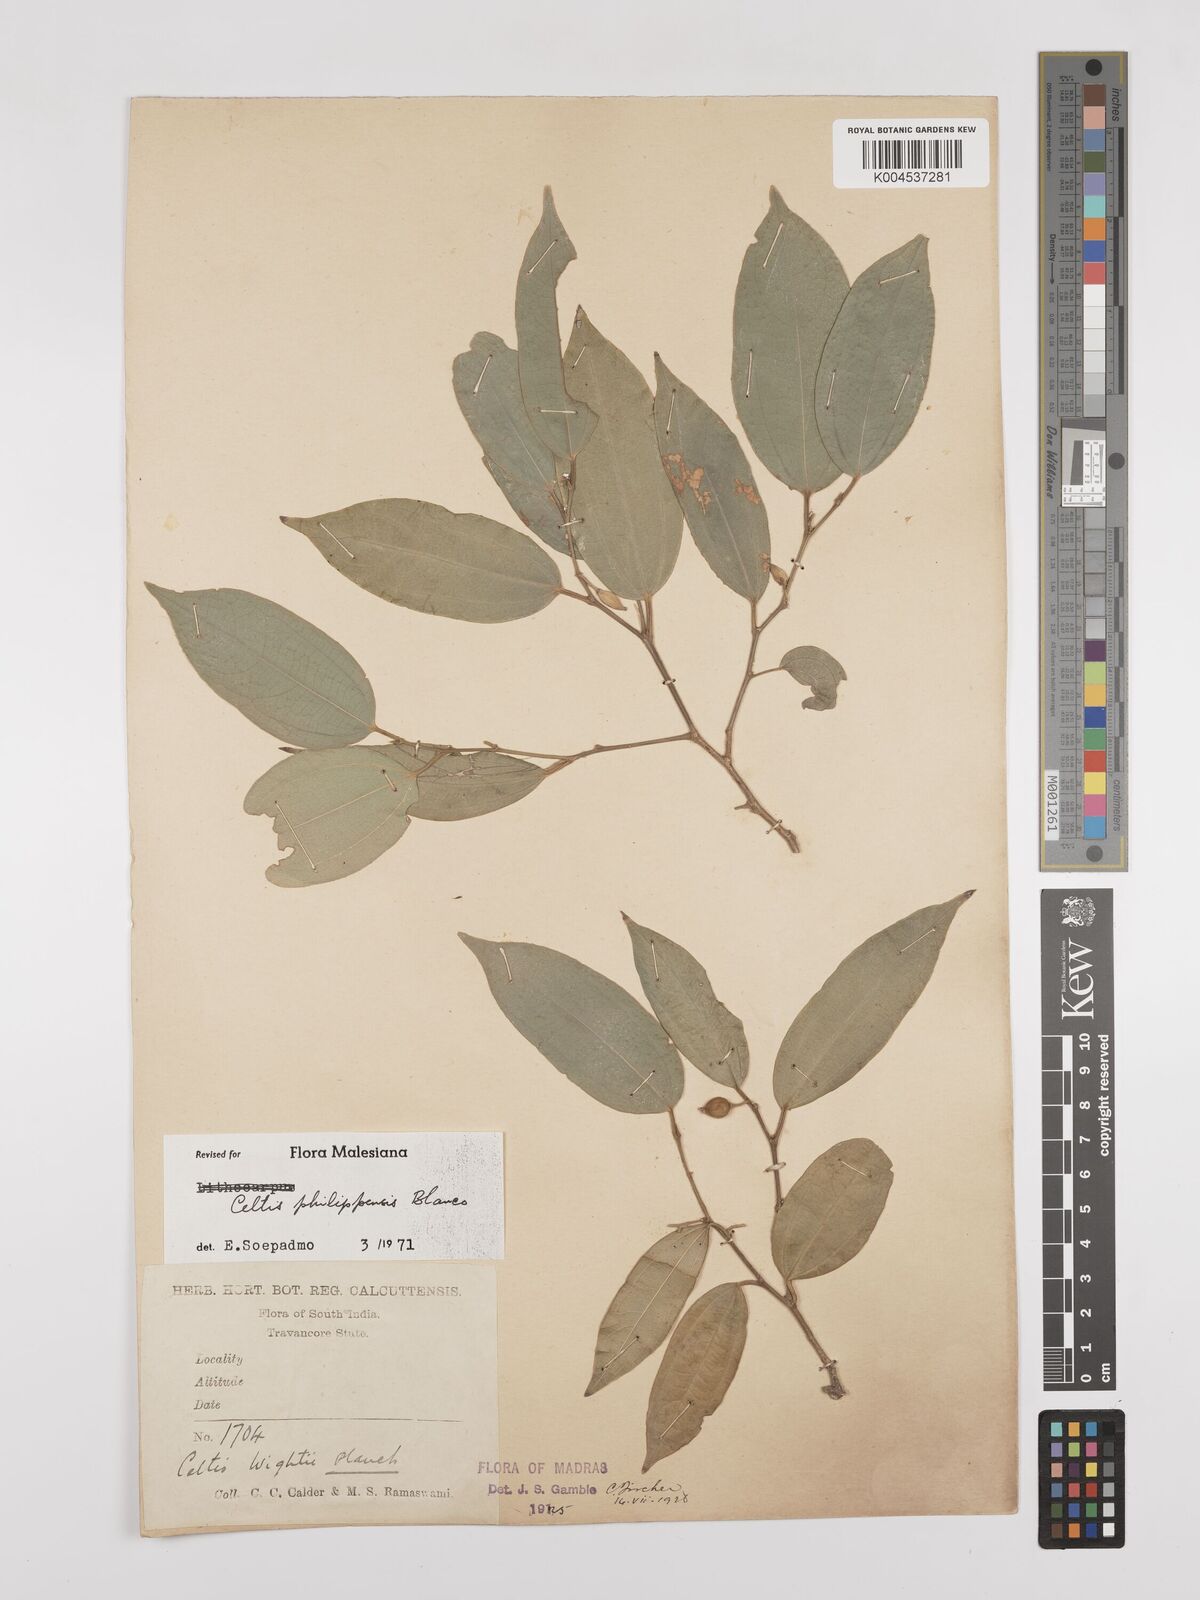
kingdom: Plantae
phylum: Tracheophyta
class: Magnoliopsida
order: Rosales
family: Cannabaceae
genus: Celtis
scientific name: Celtis philippensis
